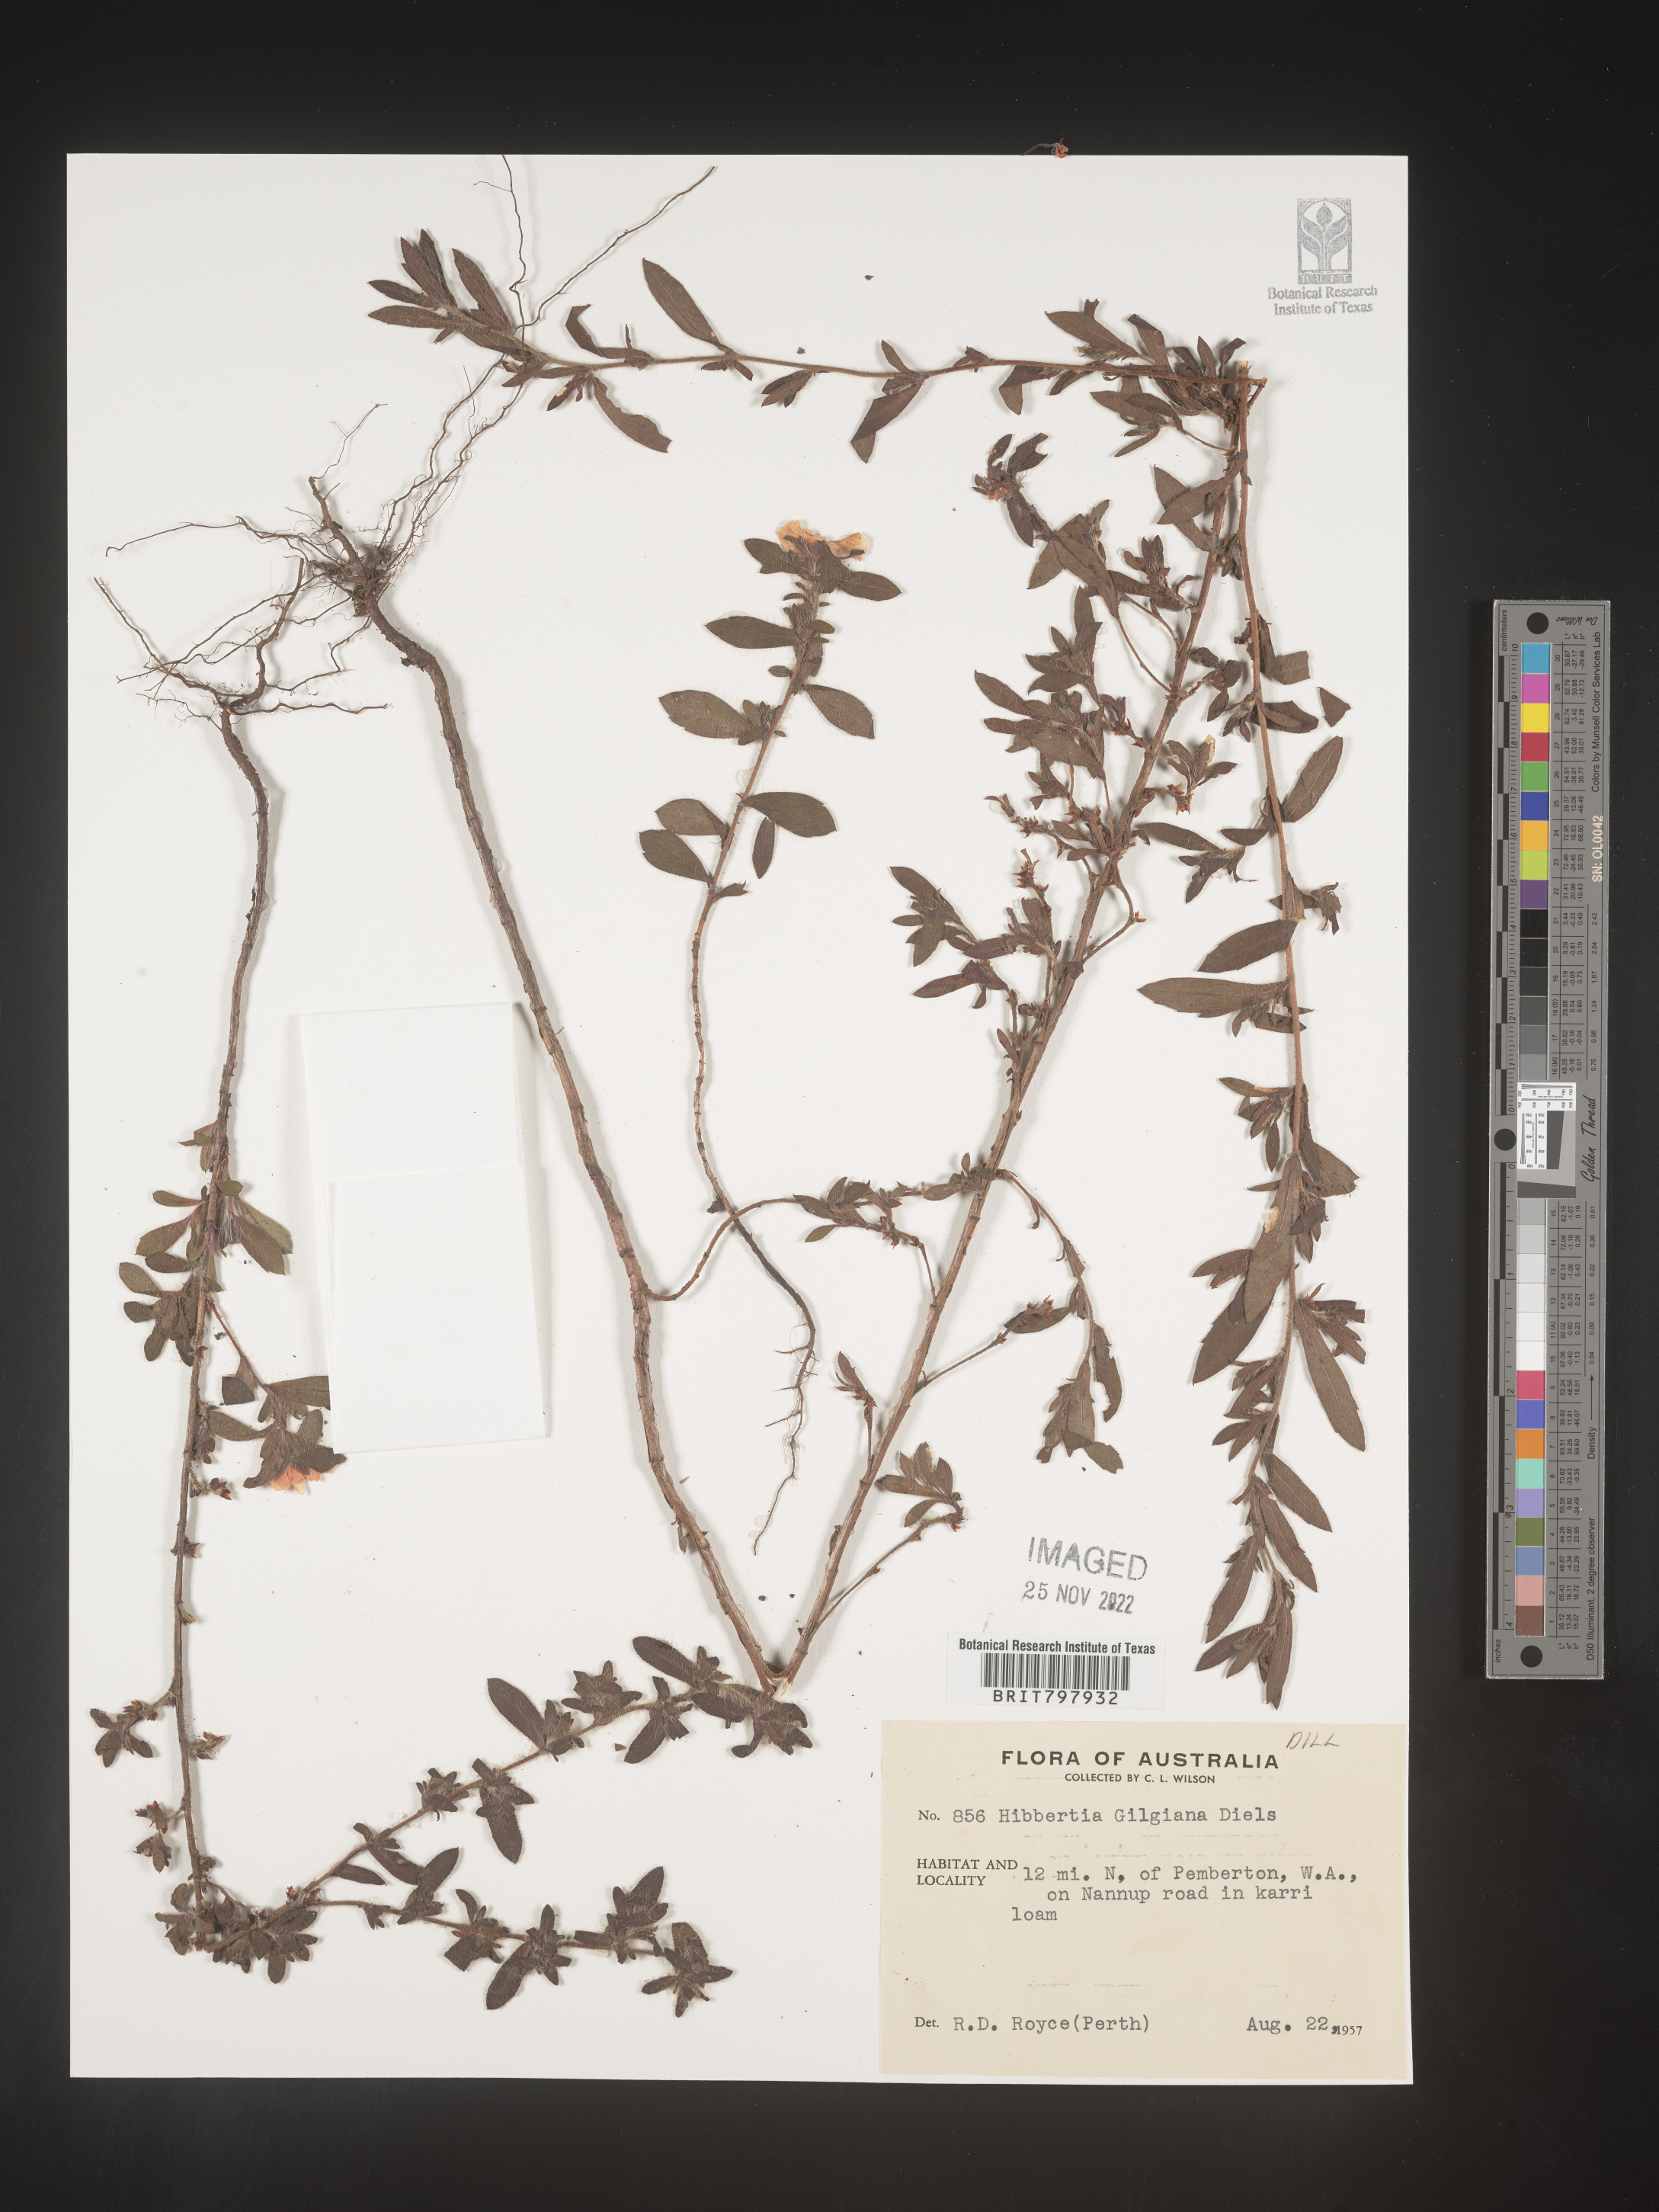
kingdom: Plantae
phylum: Tracheophyta
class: Magnoliopsida
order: Dilleniales
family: Dilleniaceae
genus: Hibbertia
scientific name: Hibbertia
